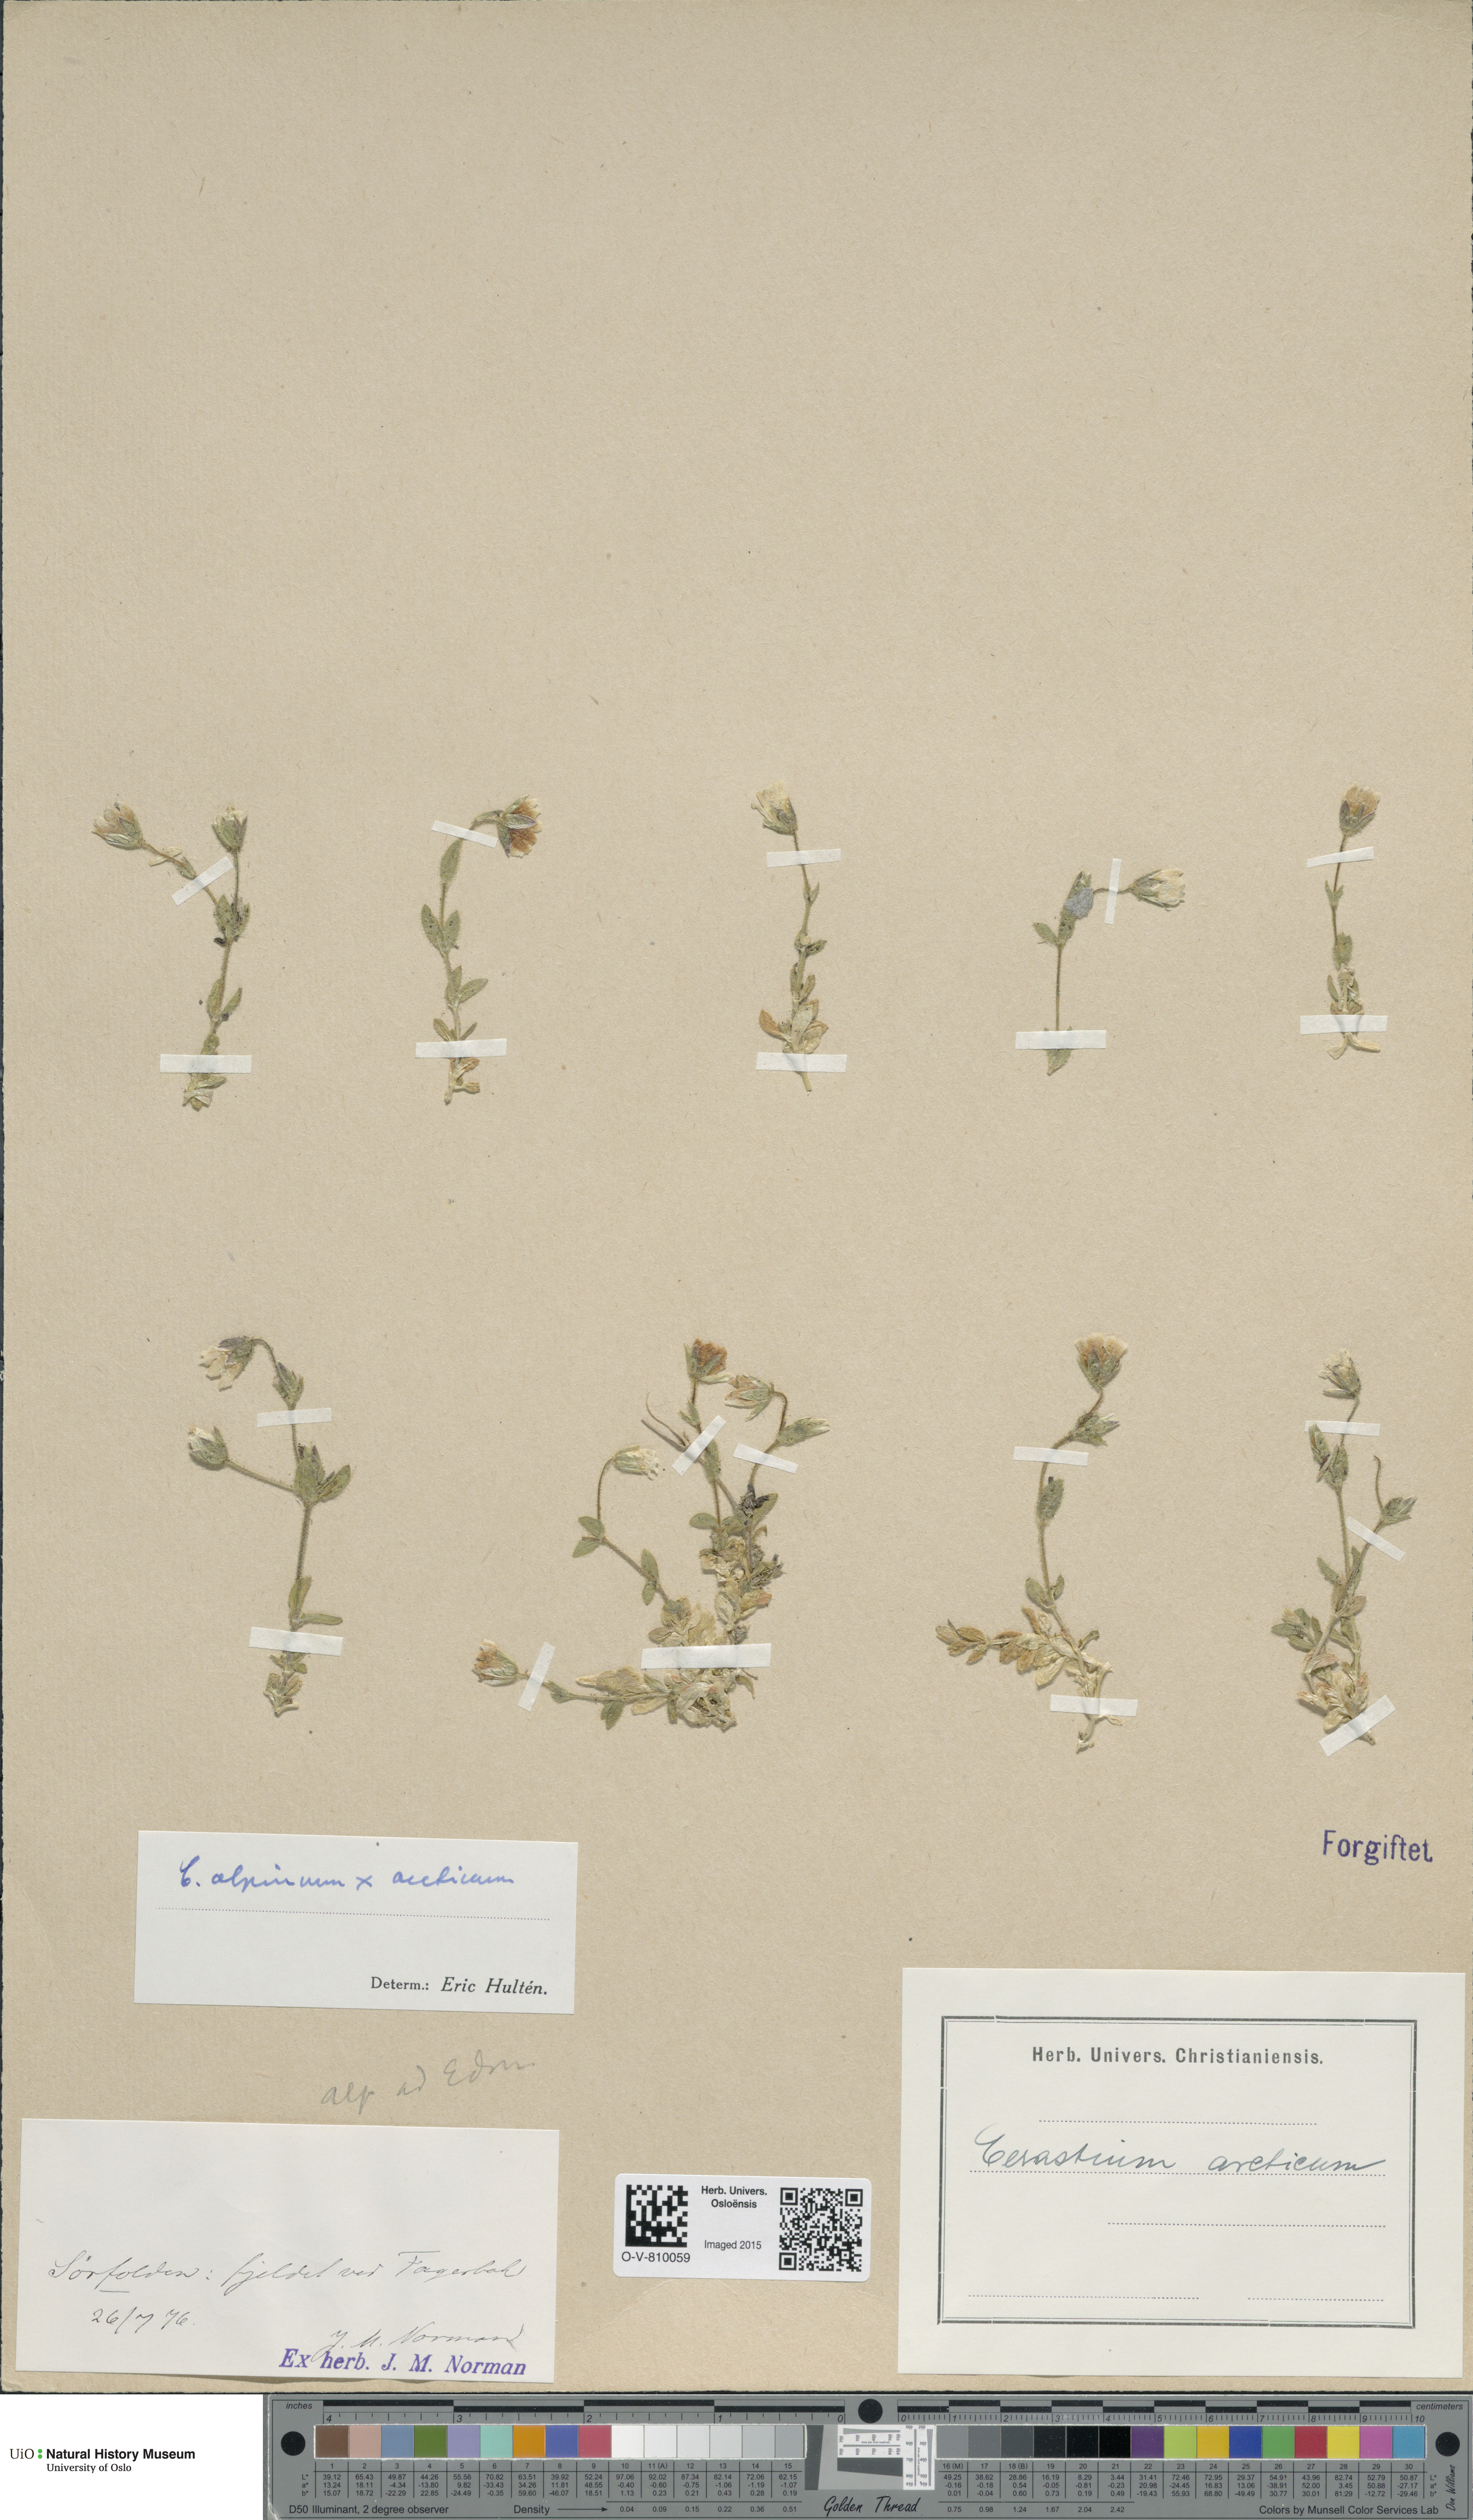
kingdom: Plantae
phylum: Tracheophyta
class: Magnoliopsida
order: Caryophyllales
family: Caryophyllaceae
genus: Cerastium
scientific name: Cerastium
